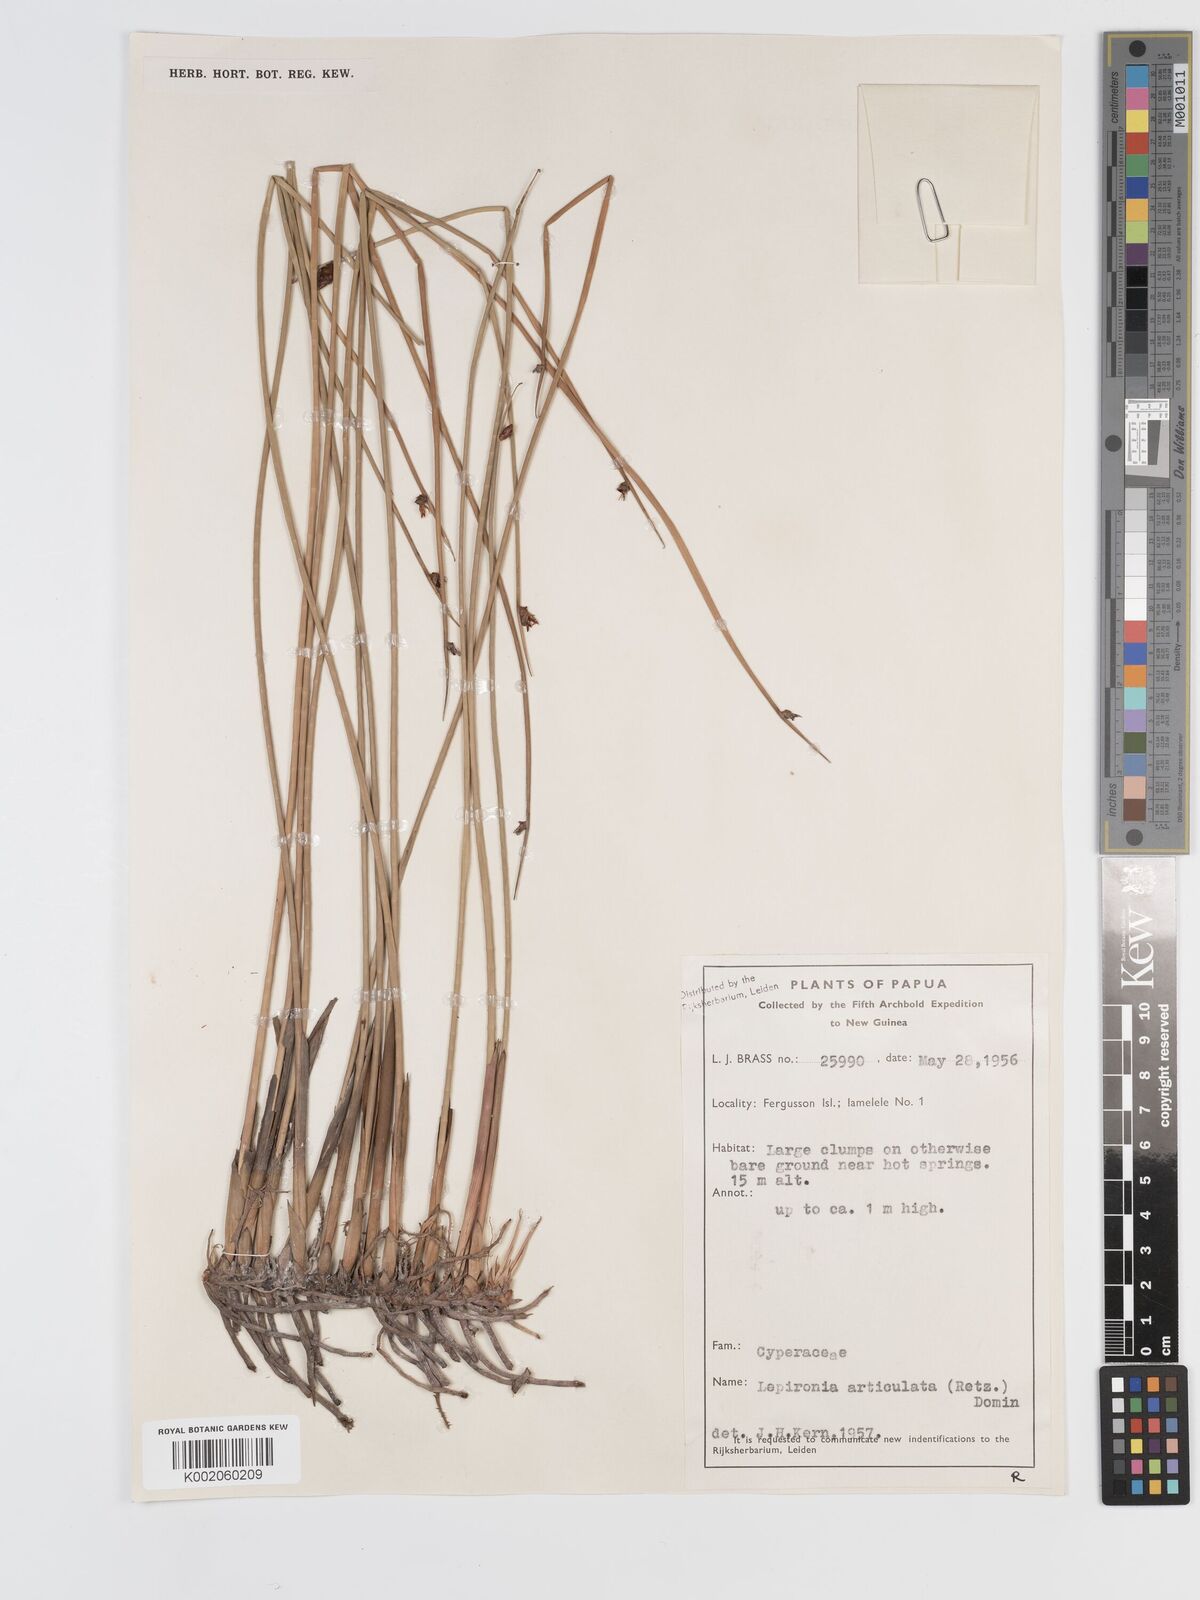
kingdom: Plantae
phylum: Tracheophyta
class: Liliopsida
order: Poales
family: Cyperaceae
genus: Lepironia
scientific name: Lepironia articulata
